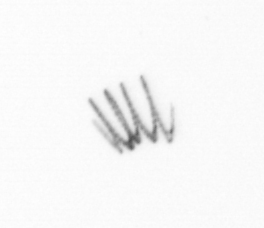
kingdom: Chromista
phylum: Ochrophyta
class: Bacillariophyceae
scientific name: Bacillariophyceae
